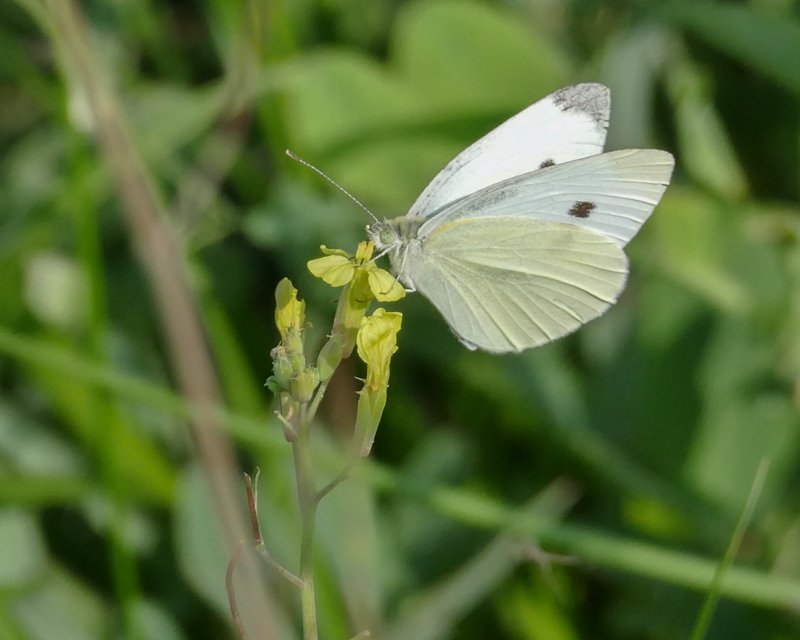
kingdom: Animalia
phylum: Arthropoda
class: Insecta
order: Lepidoptera
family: Pieridae
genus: Pieris
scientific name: Pieris rapae
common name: Cabbage White
